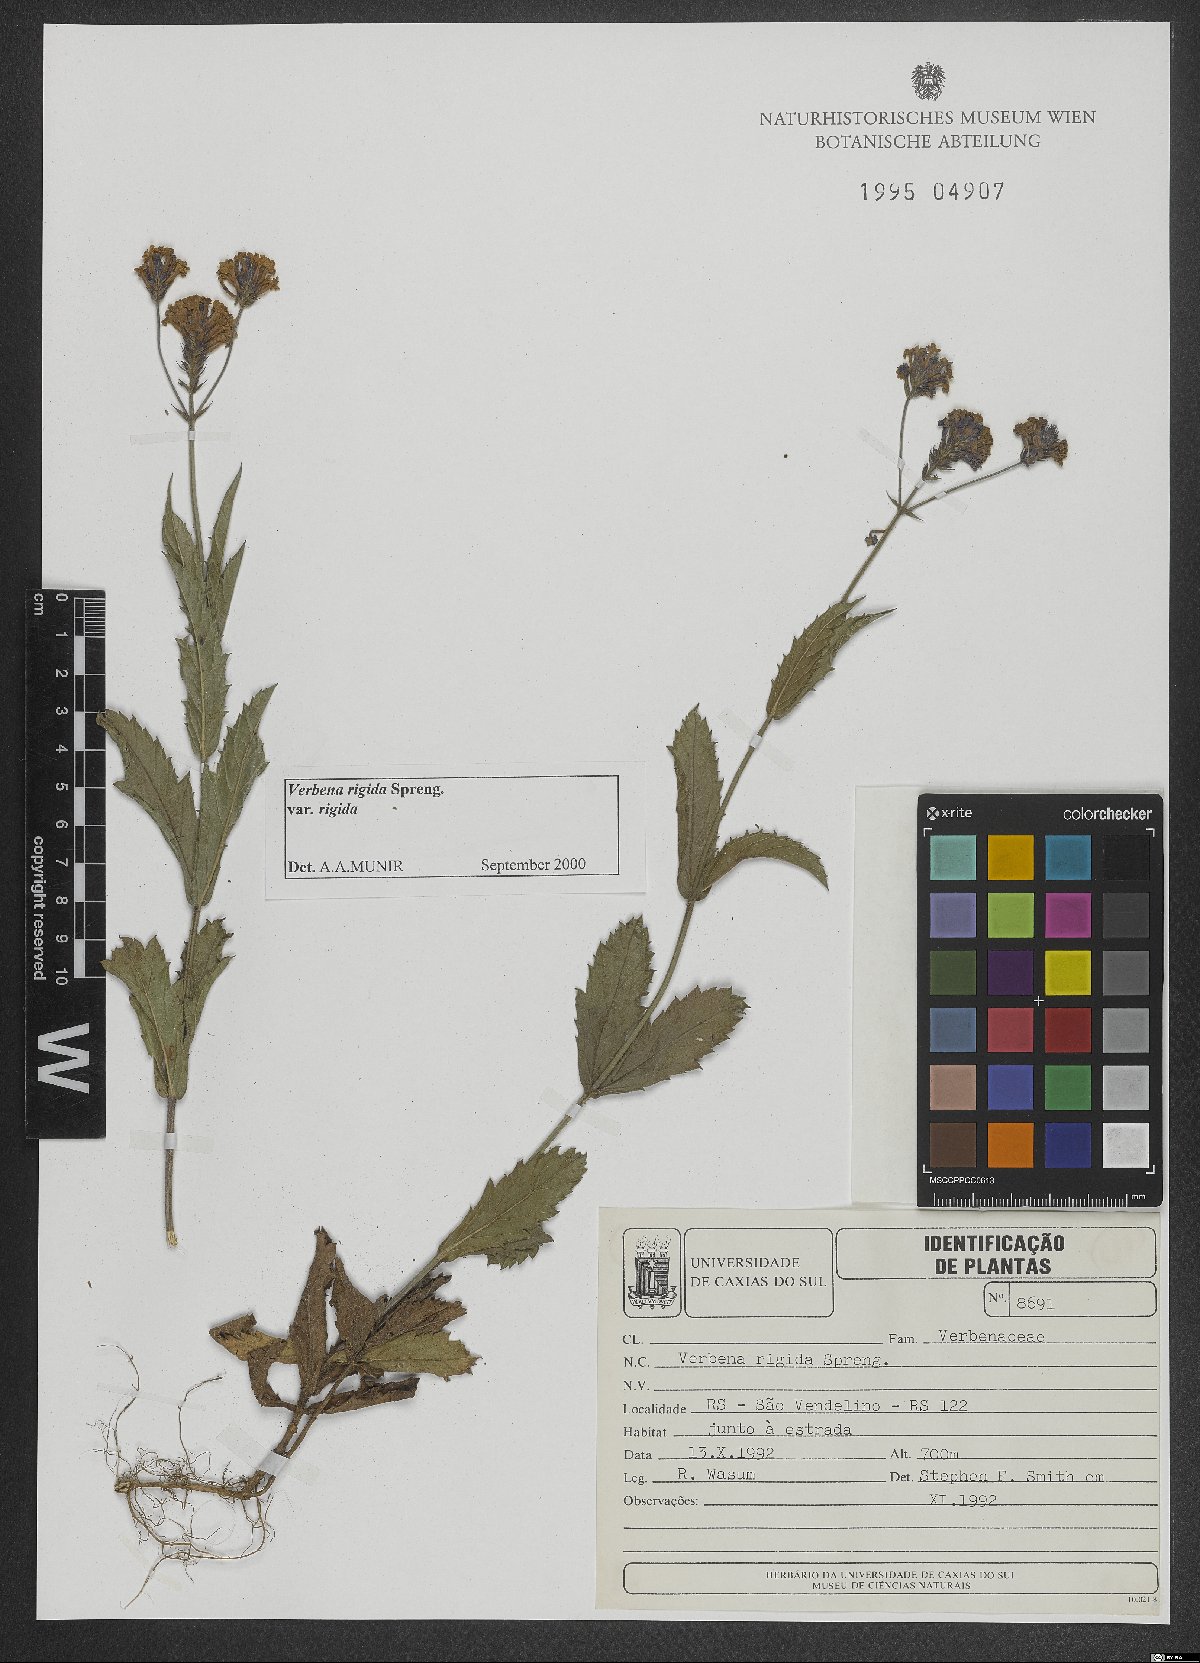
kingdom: Plantae
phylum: Tracheophyta
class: Magnoliopsida
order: Lamiales
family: Verbenaceae
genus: Verbena
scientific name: Verbena rigida
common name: Slender vervain
